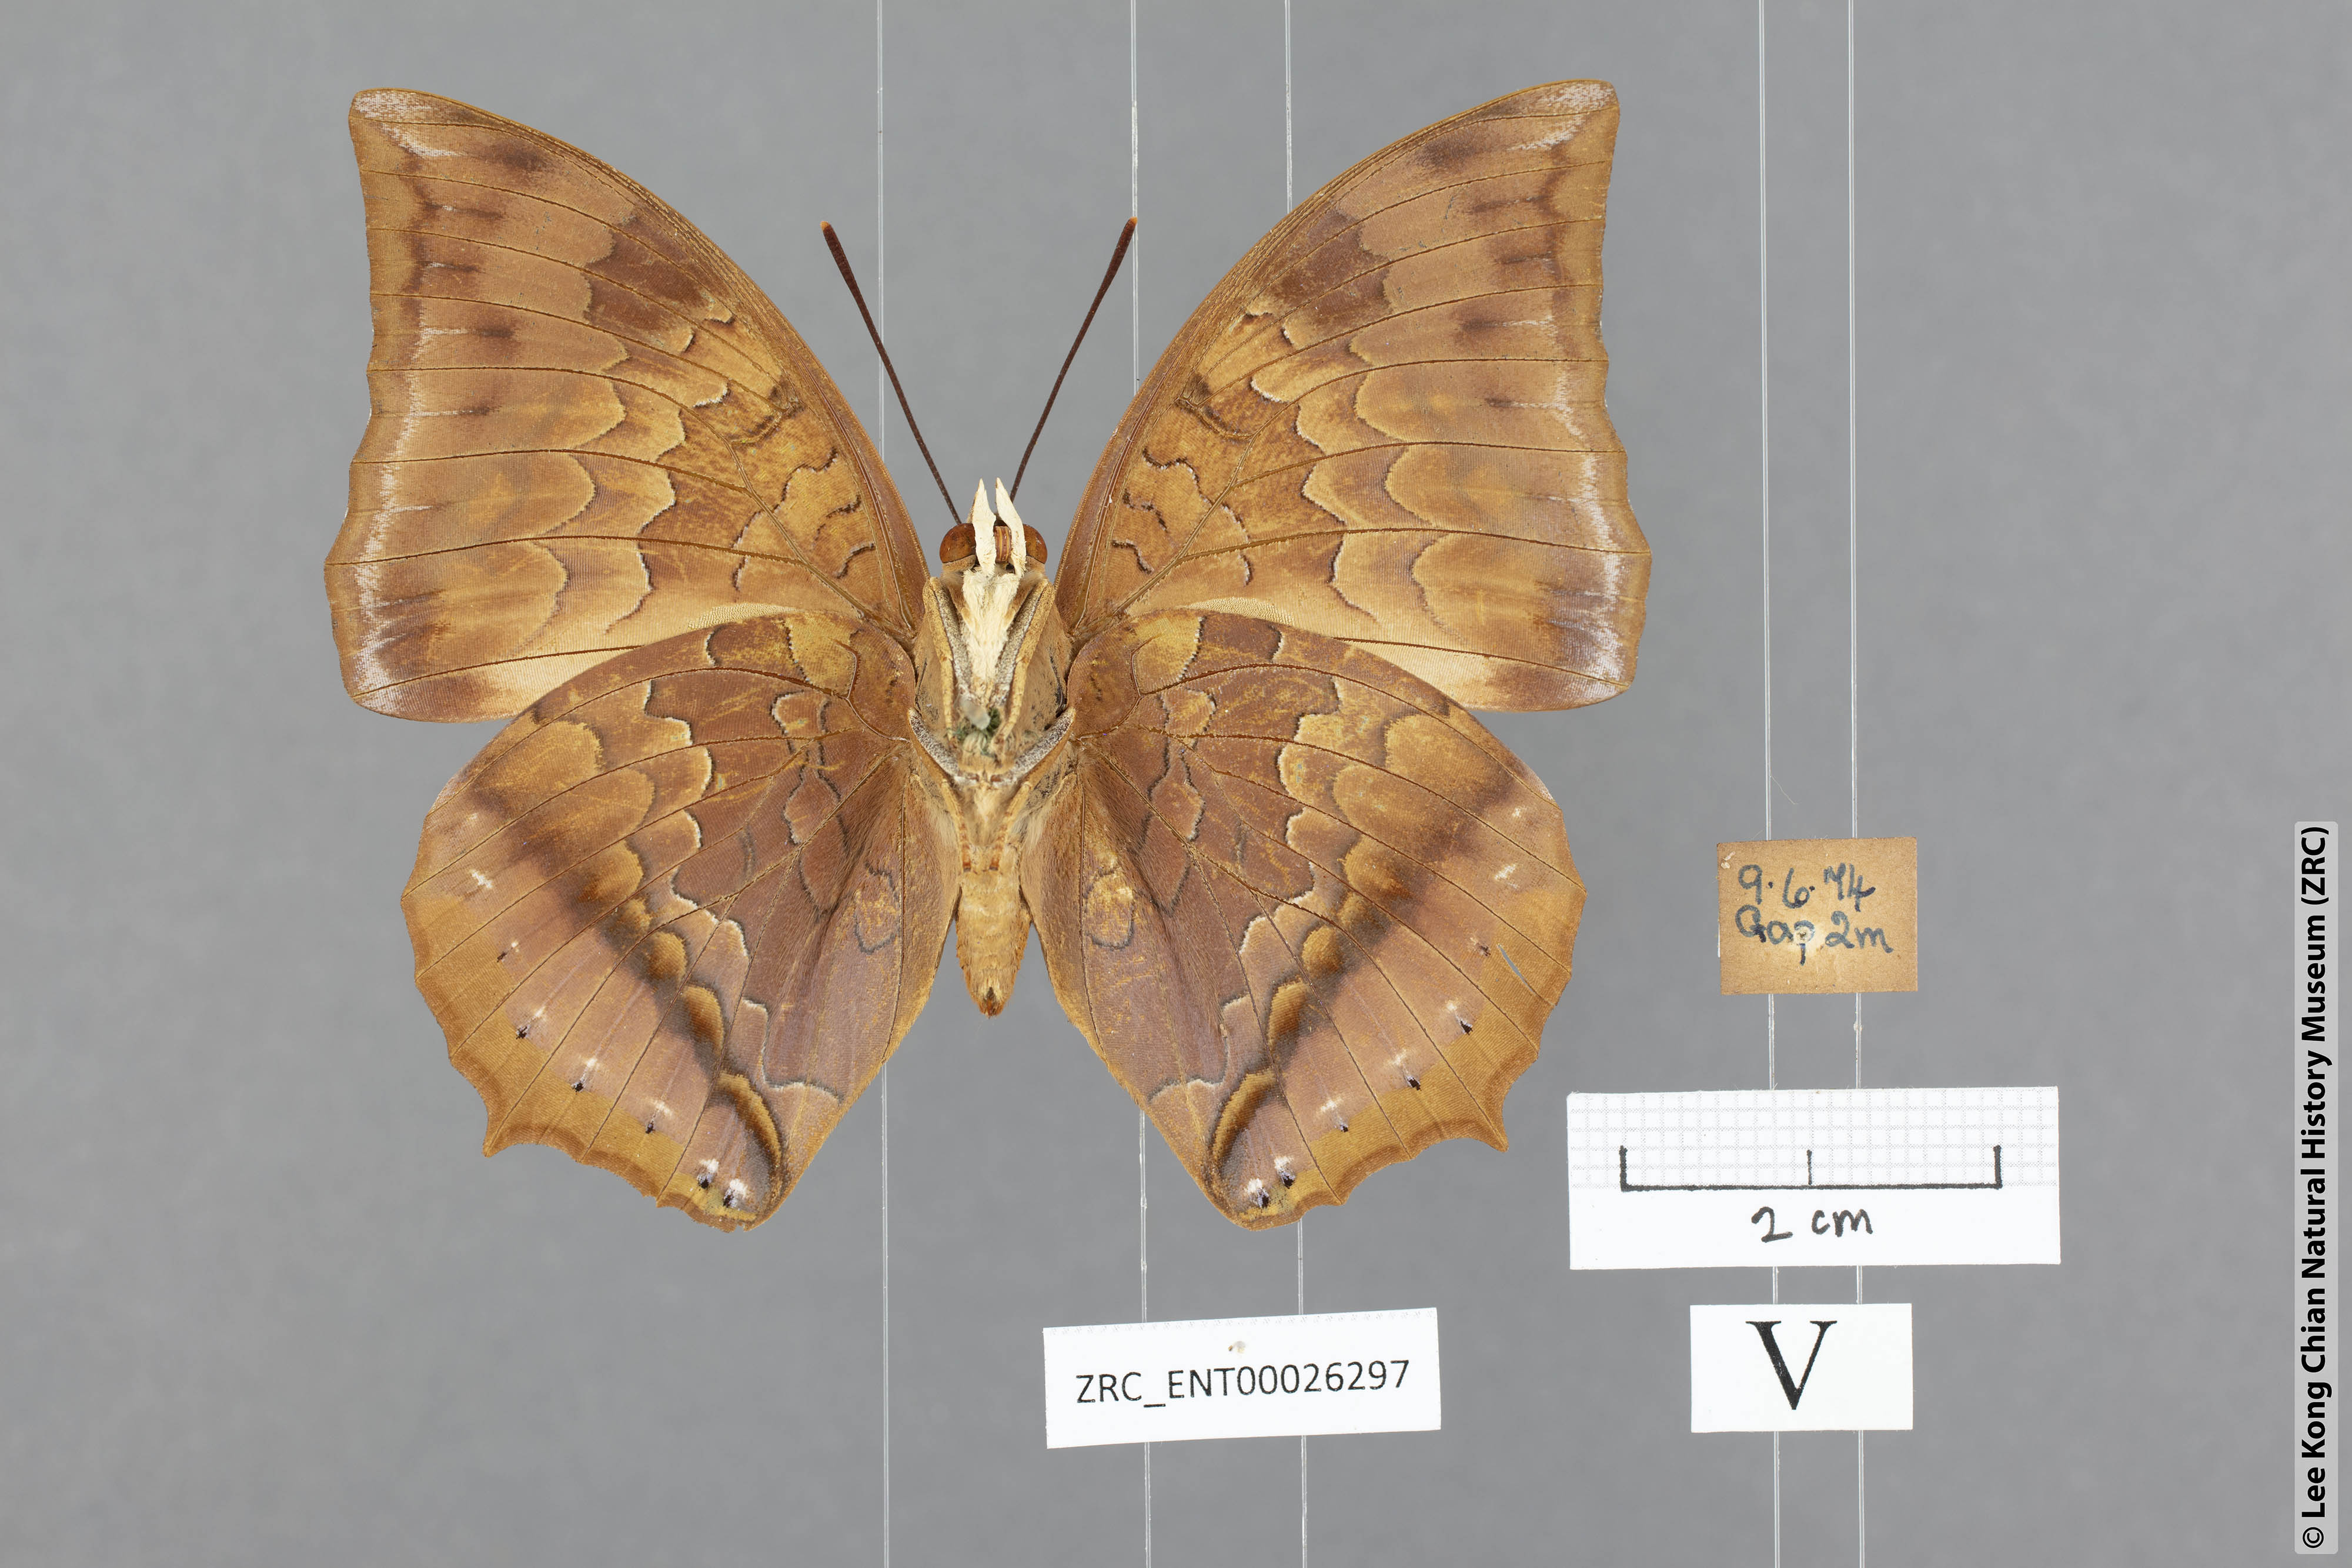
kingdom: Animalia
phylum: Arthropoda
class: Insecta
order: Lepidoptera
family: Nymphalidae
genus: Charaxes
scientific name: Charaxes bernardus
